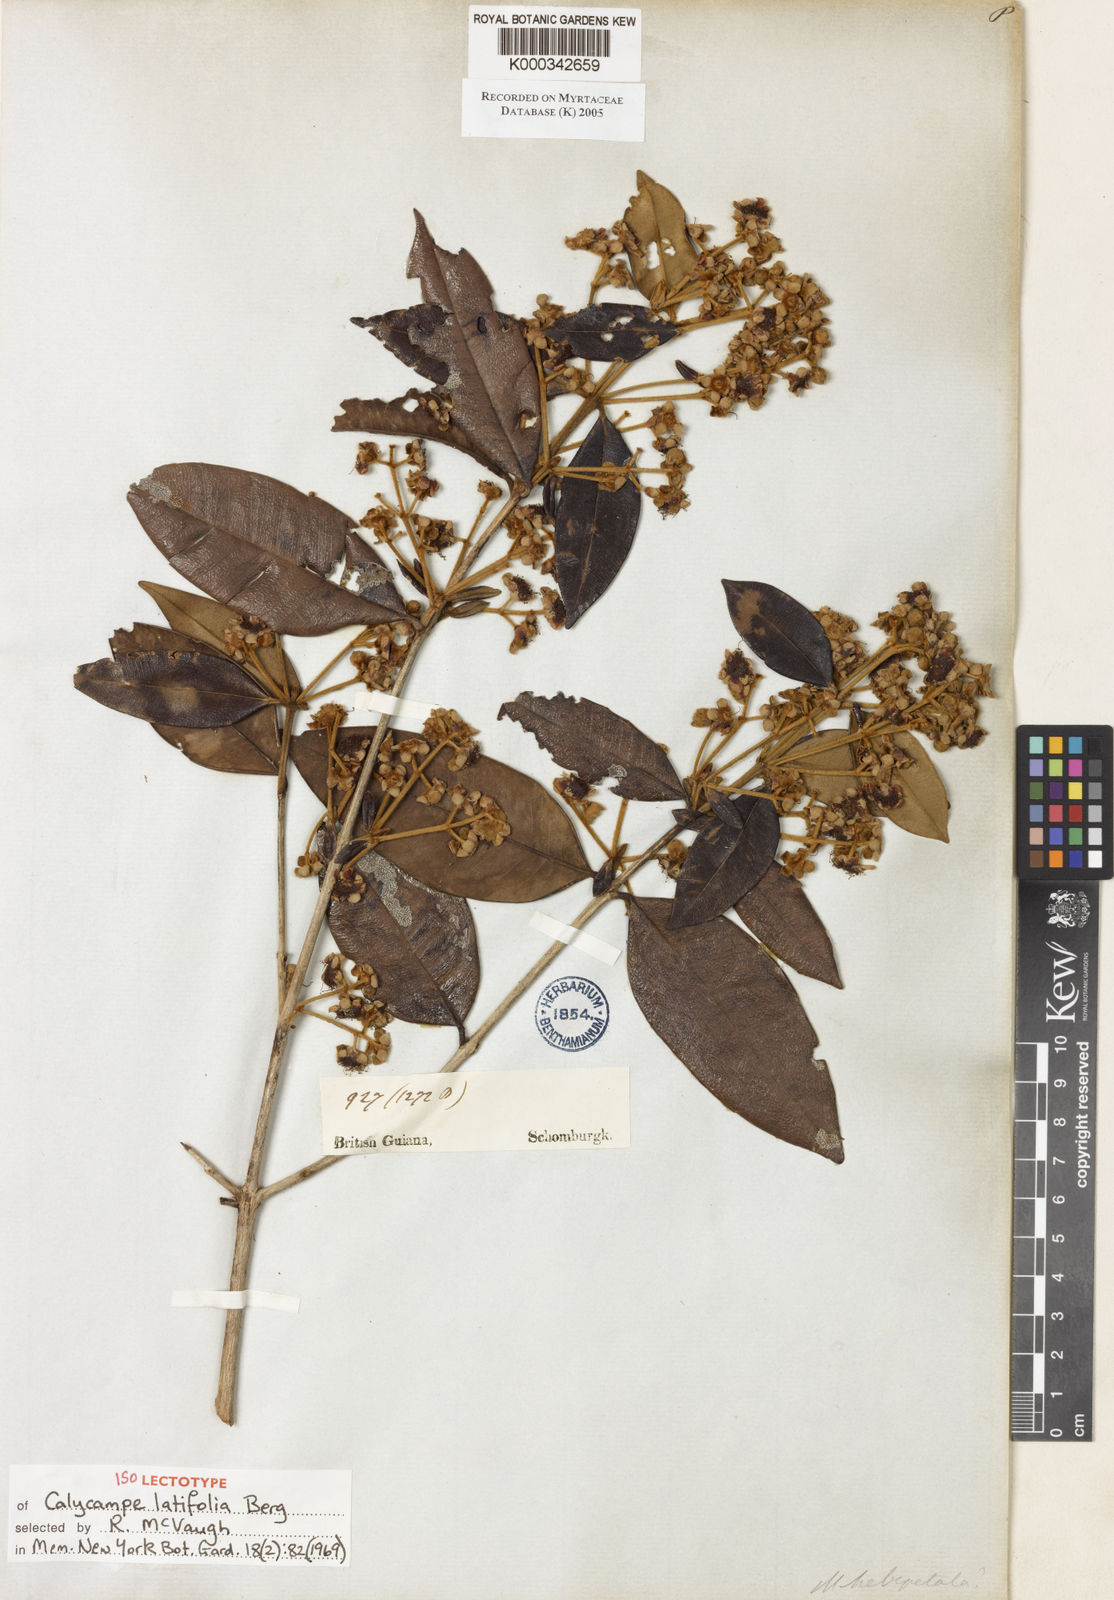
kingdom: Plantae
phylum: Tracheophyta
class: Magnoliopsida
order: Myrtales
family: Myrtaceae
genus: Myrcia
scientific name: Myrcia calycampa
